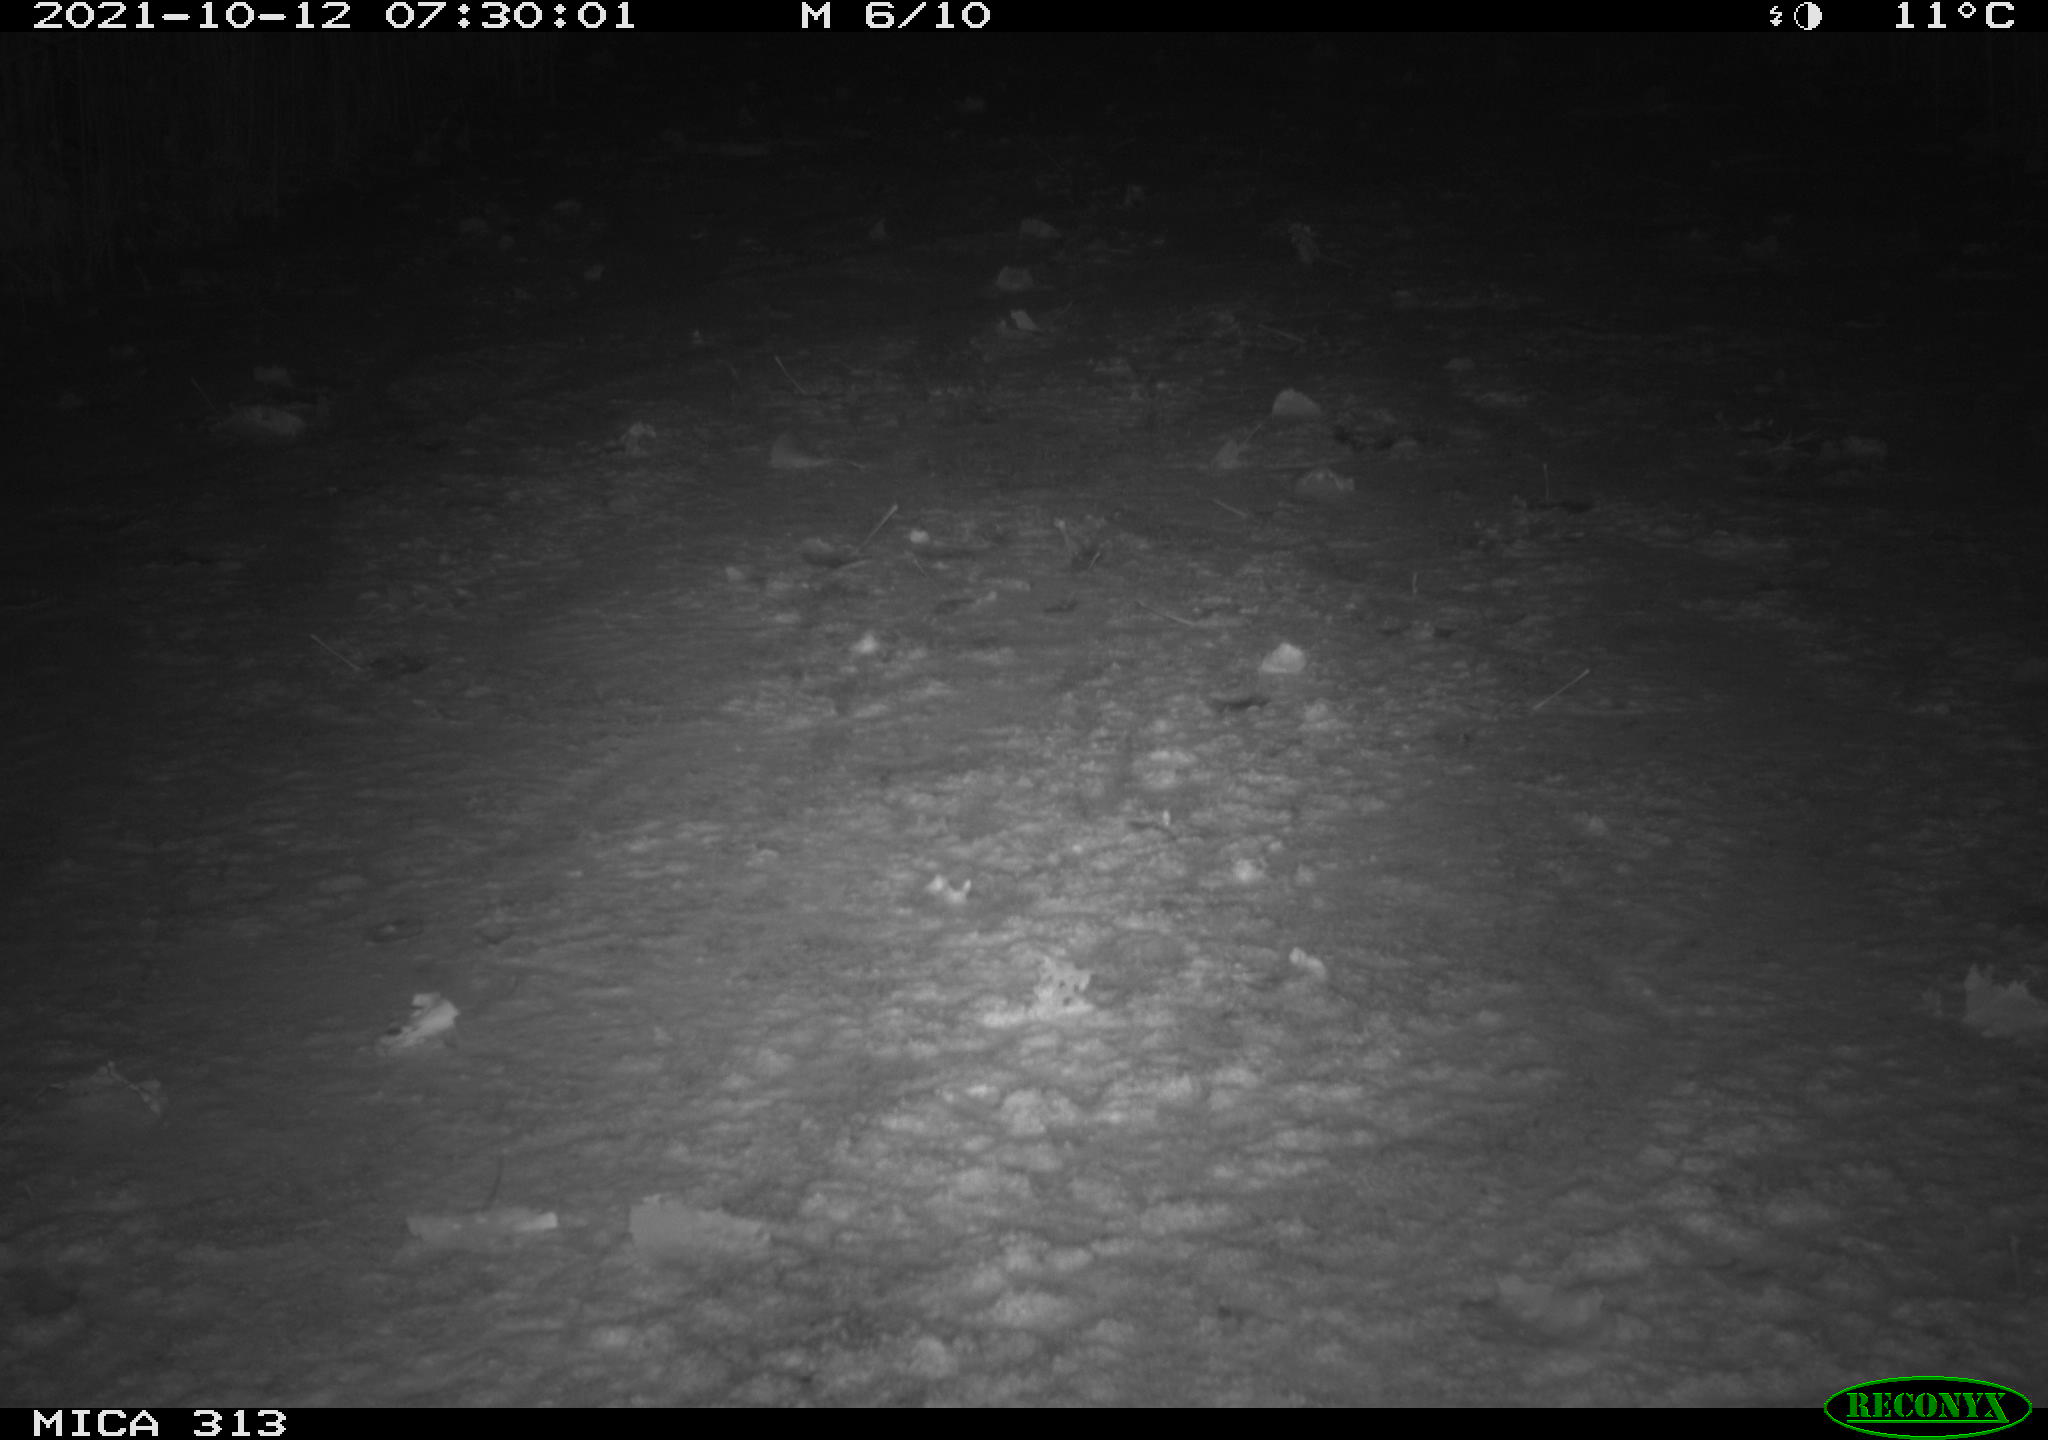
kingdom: Animalia
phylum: Chordata
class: Aves
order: Gruiformes
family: Rallidae
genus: Gallinula
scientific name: Gallinula chloropus
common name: Common moorhen
